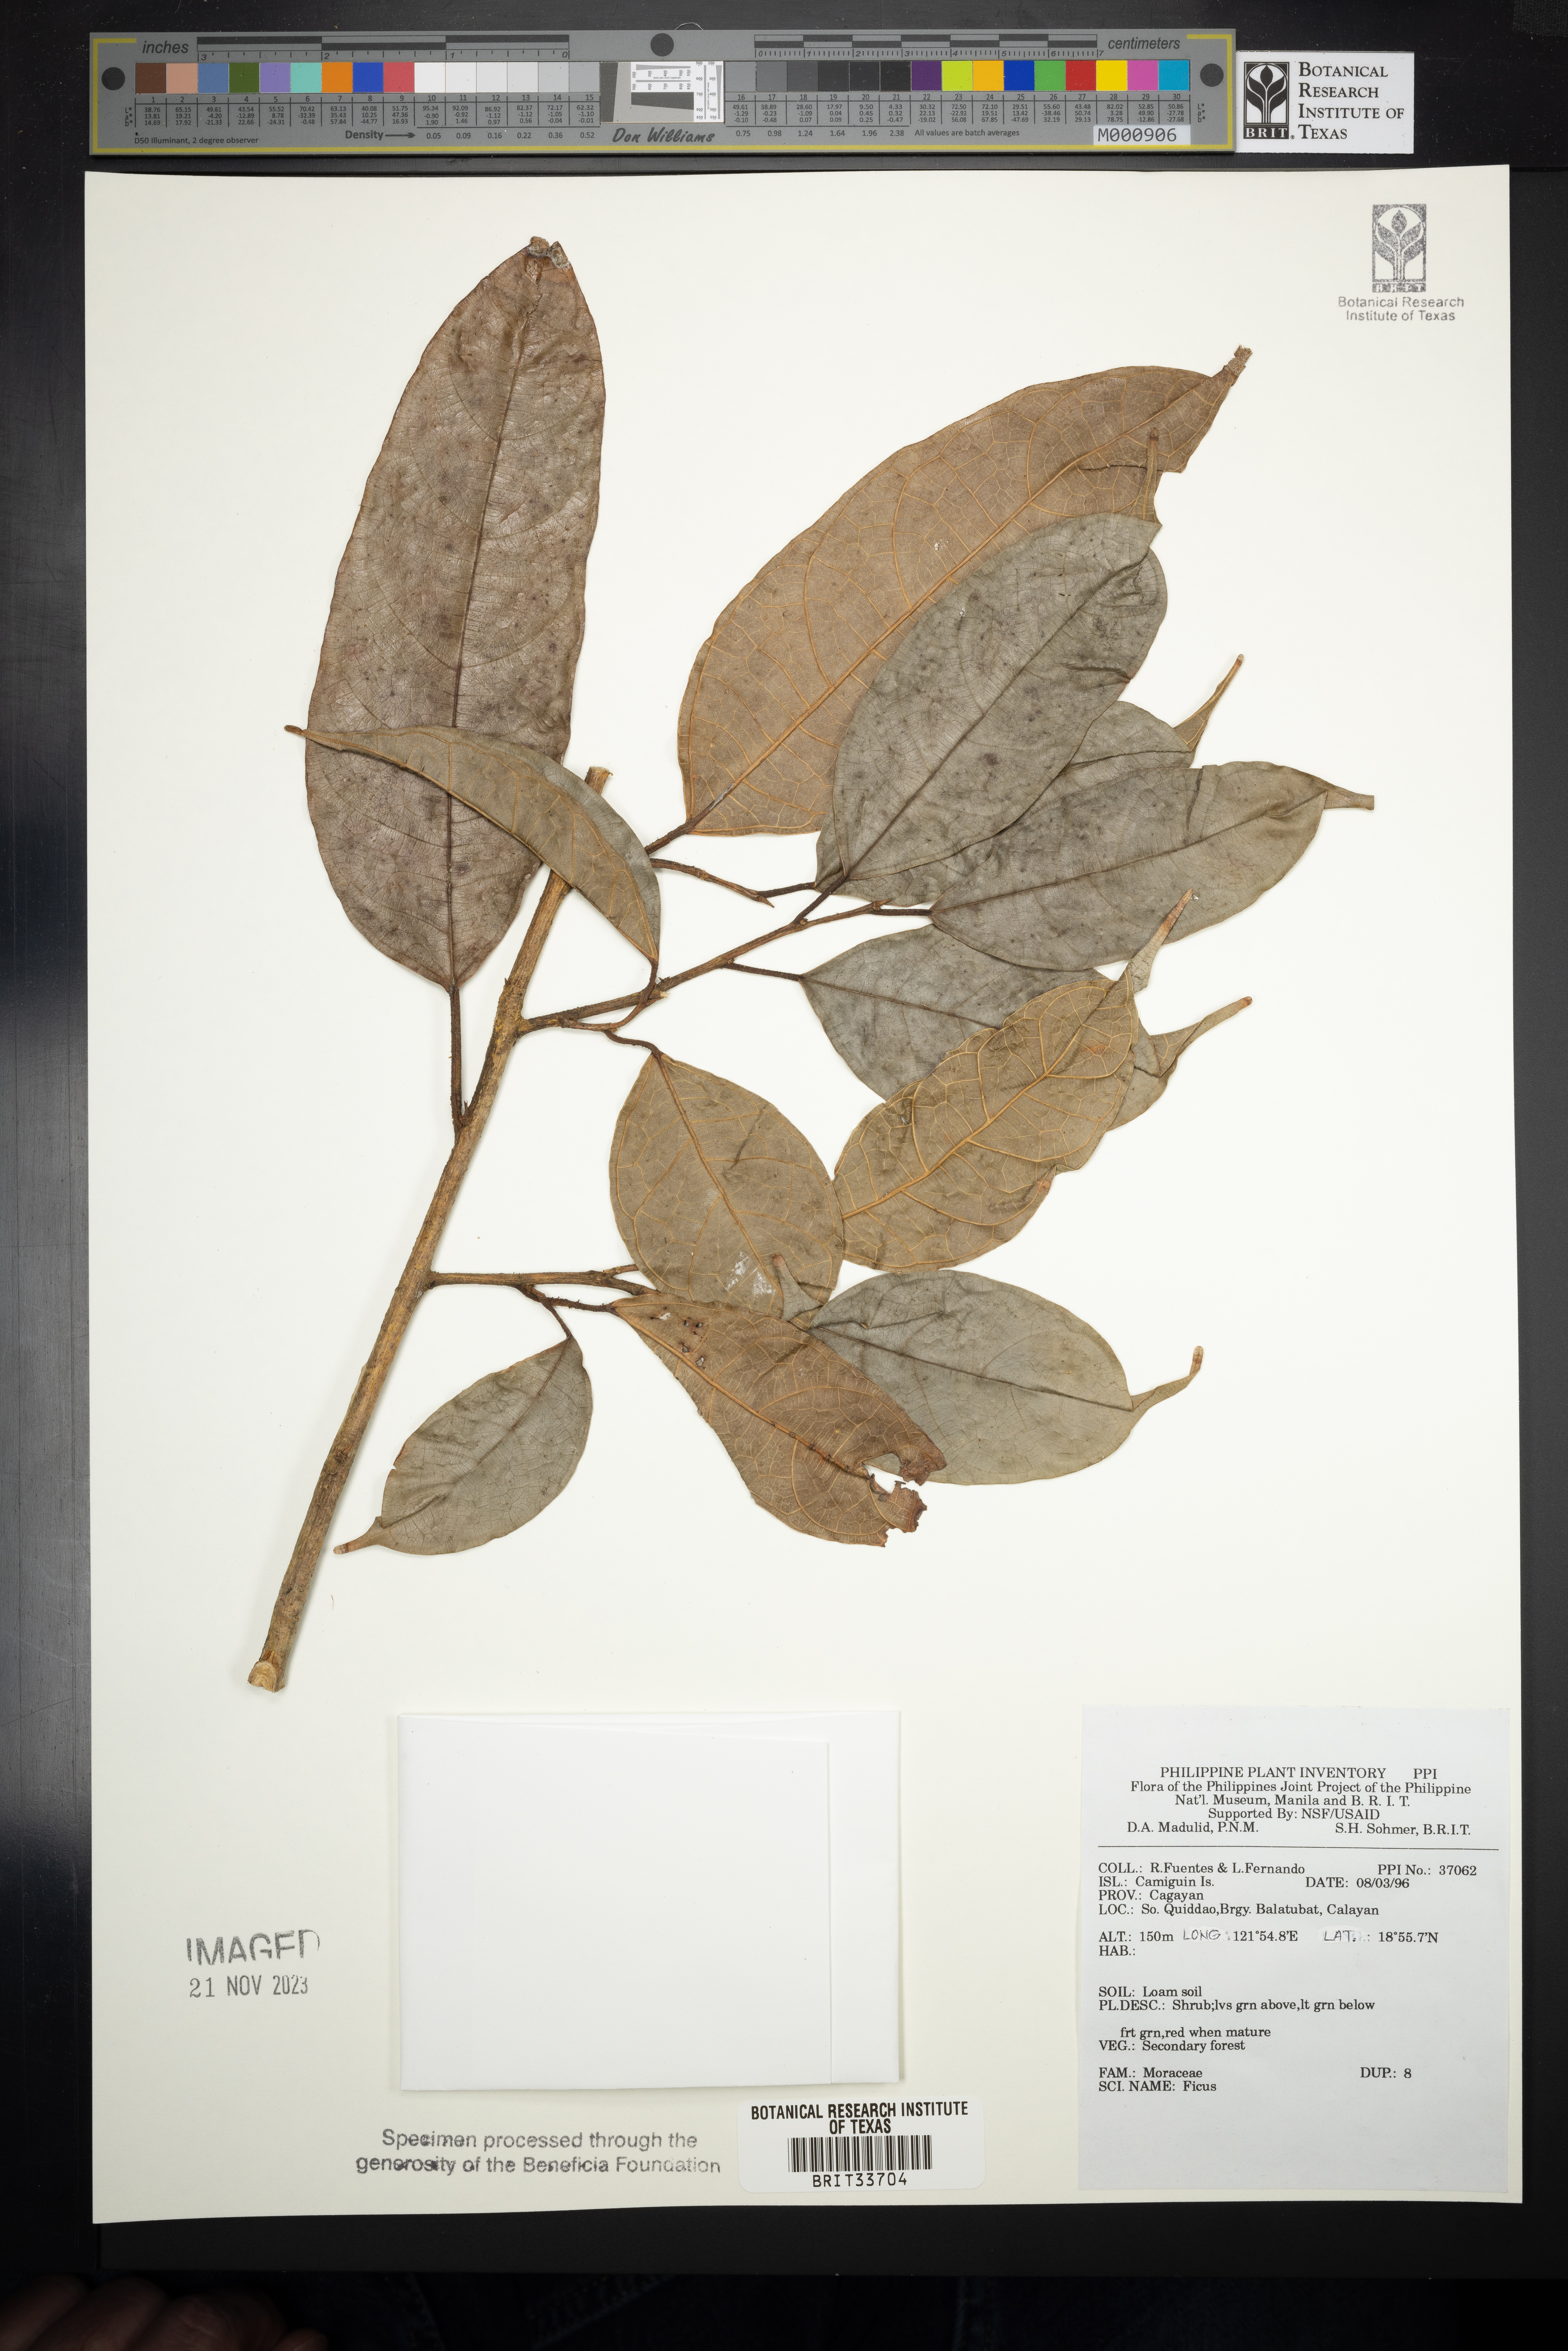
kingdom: Plantae
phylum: Tracheophyta
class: Magnoliopsida
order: Rosales
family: Moraceae
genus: Ficus
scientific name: Ficus
